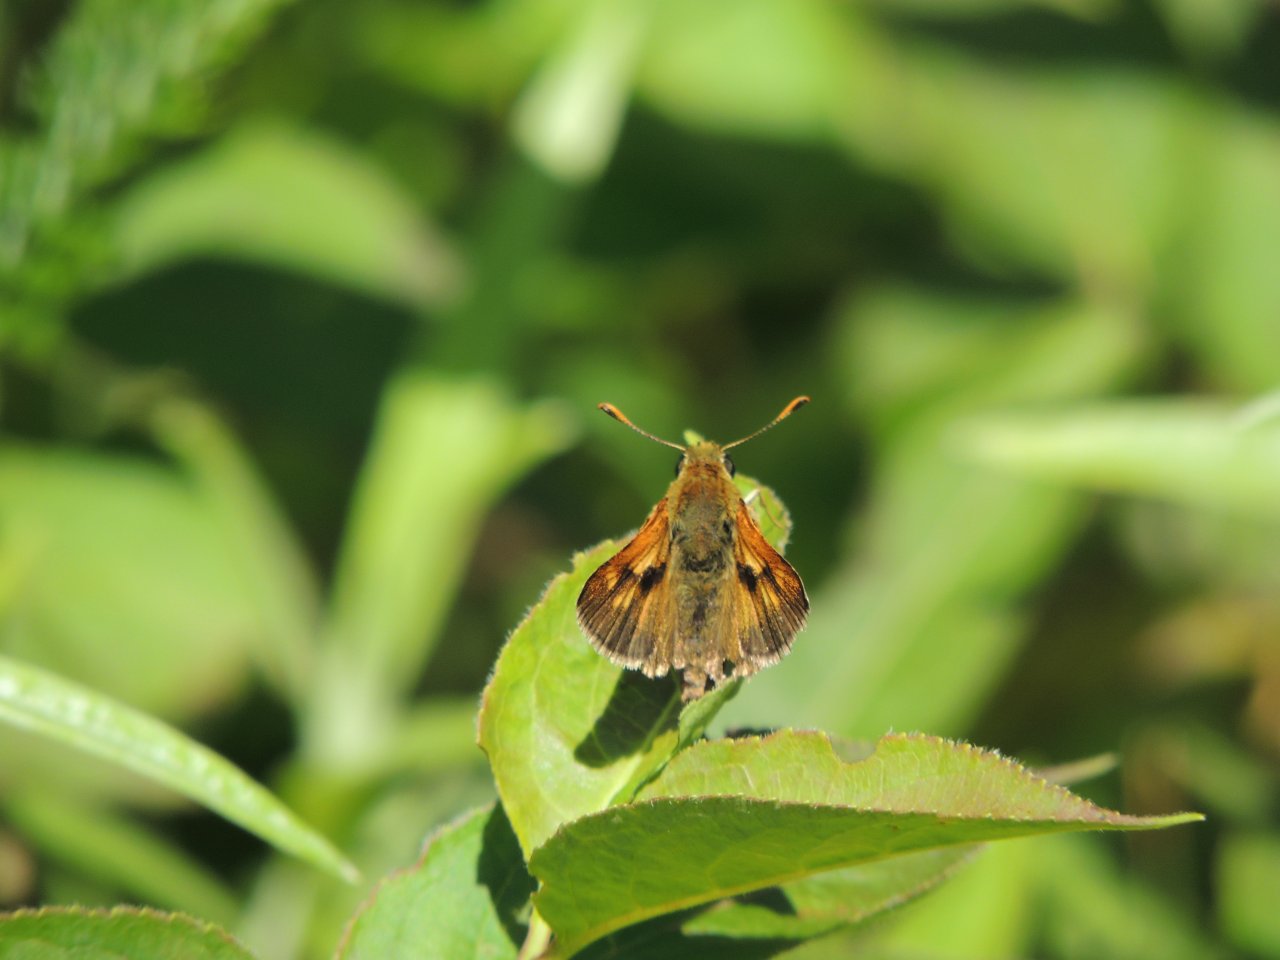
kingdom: Animalia
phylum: Arthropoda
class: Insecta
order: Lepidoptera
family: Hesperiidae
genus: Polites
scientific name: Polites
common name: Long Dash Skipper
